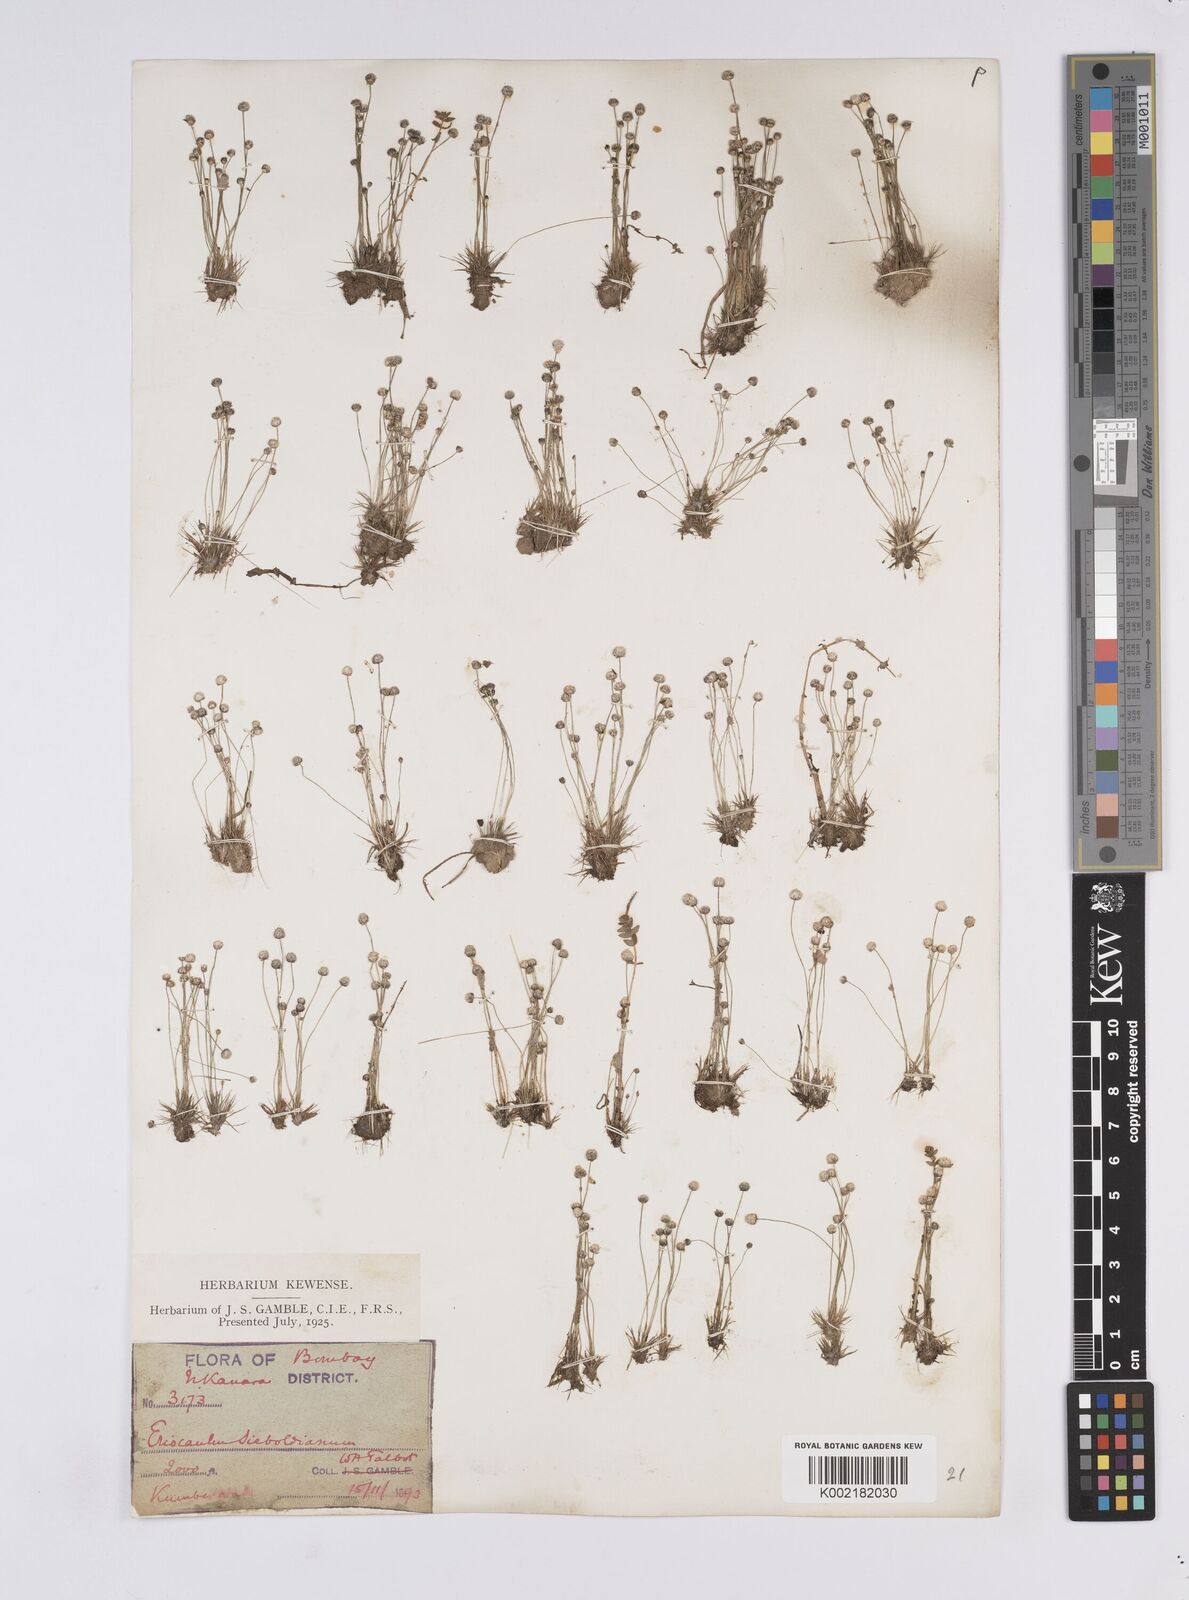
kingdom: Plantae
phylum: Tracheophyta
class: Liliopsida
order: Poales
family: Eriocaulaceae
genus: Eriocaulon
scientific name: Eriocaulon cinereum
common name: Ashy pipewort
